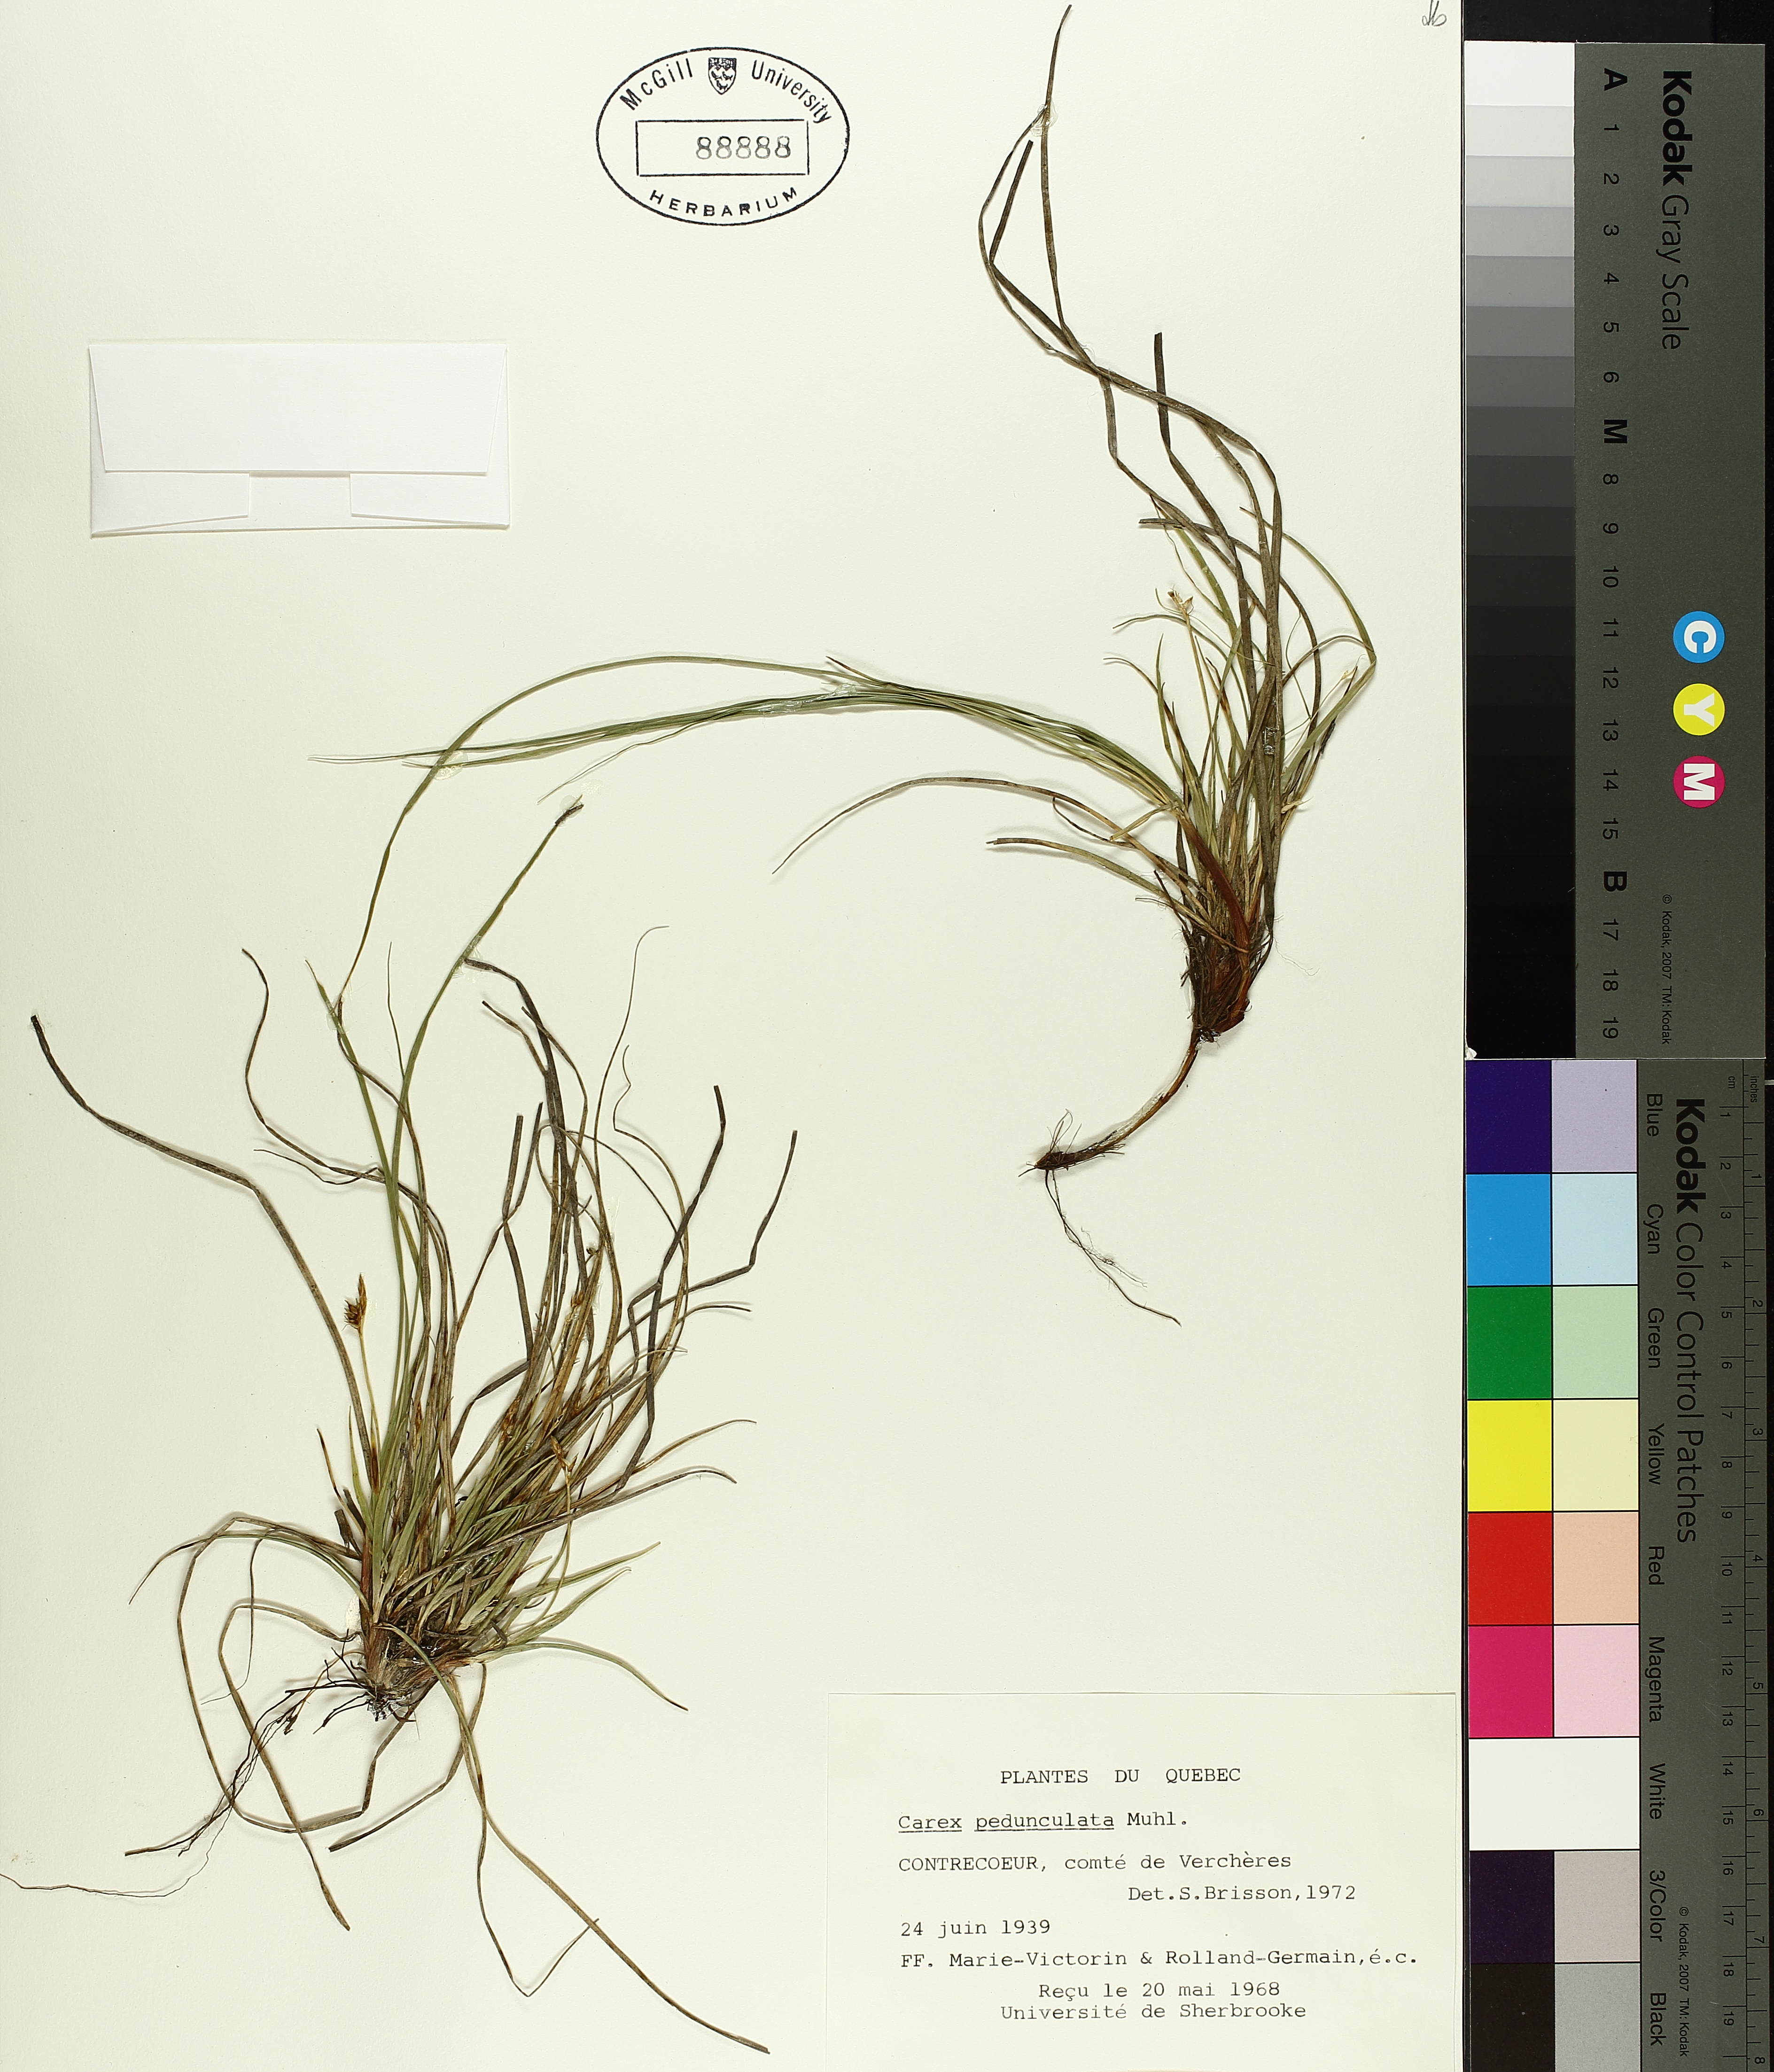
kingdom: Plantae
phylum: Tracheophyta
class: Liliopsida
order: Poales
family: Cyperaceae
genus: Carex
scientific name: Carex pedunculata
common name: Pedunculate sedge
